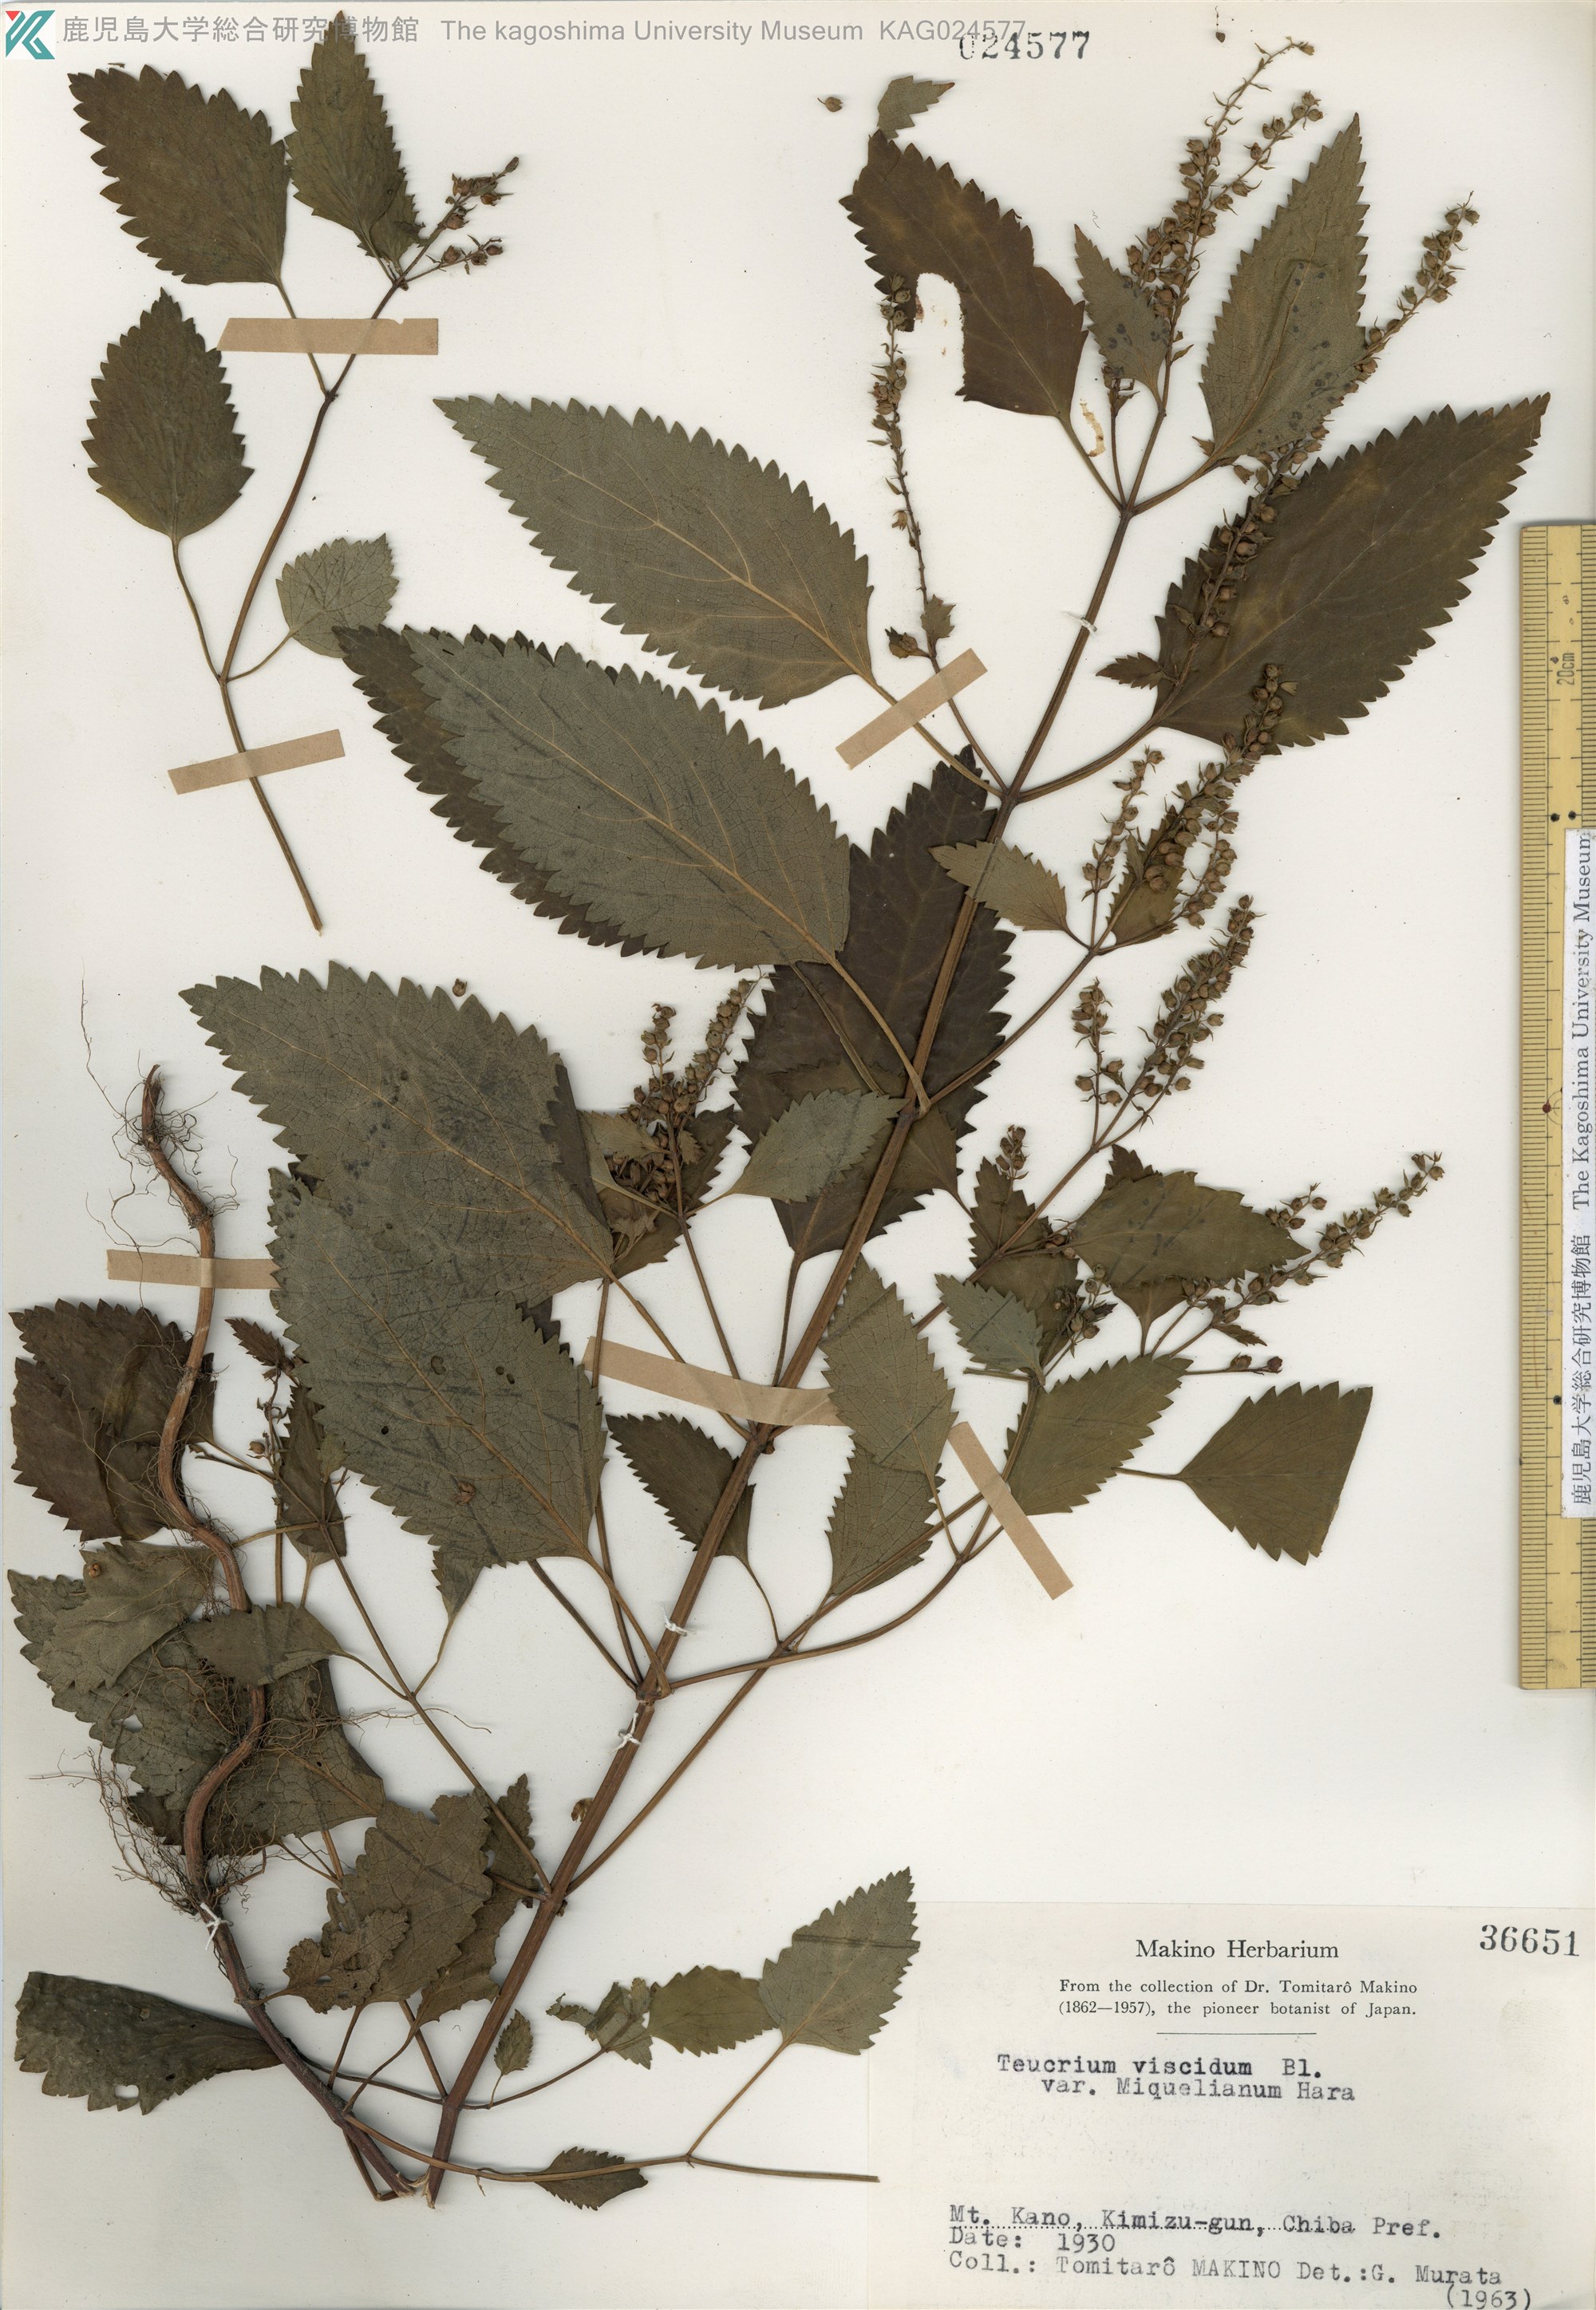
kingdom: Plantae
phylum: Tracheophyta
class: Magnoliopsida
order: Lamiales
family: Lamiaceae
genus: Teucrium
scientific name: Teucrium viscidum
